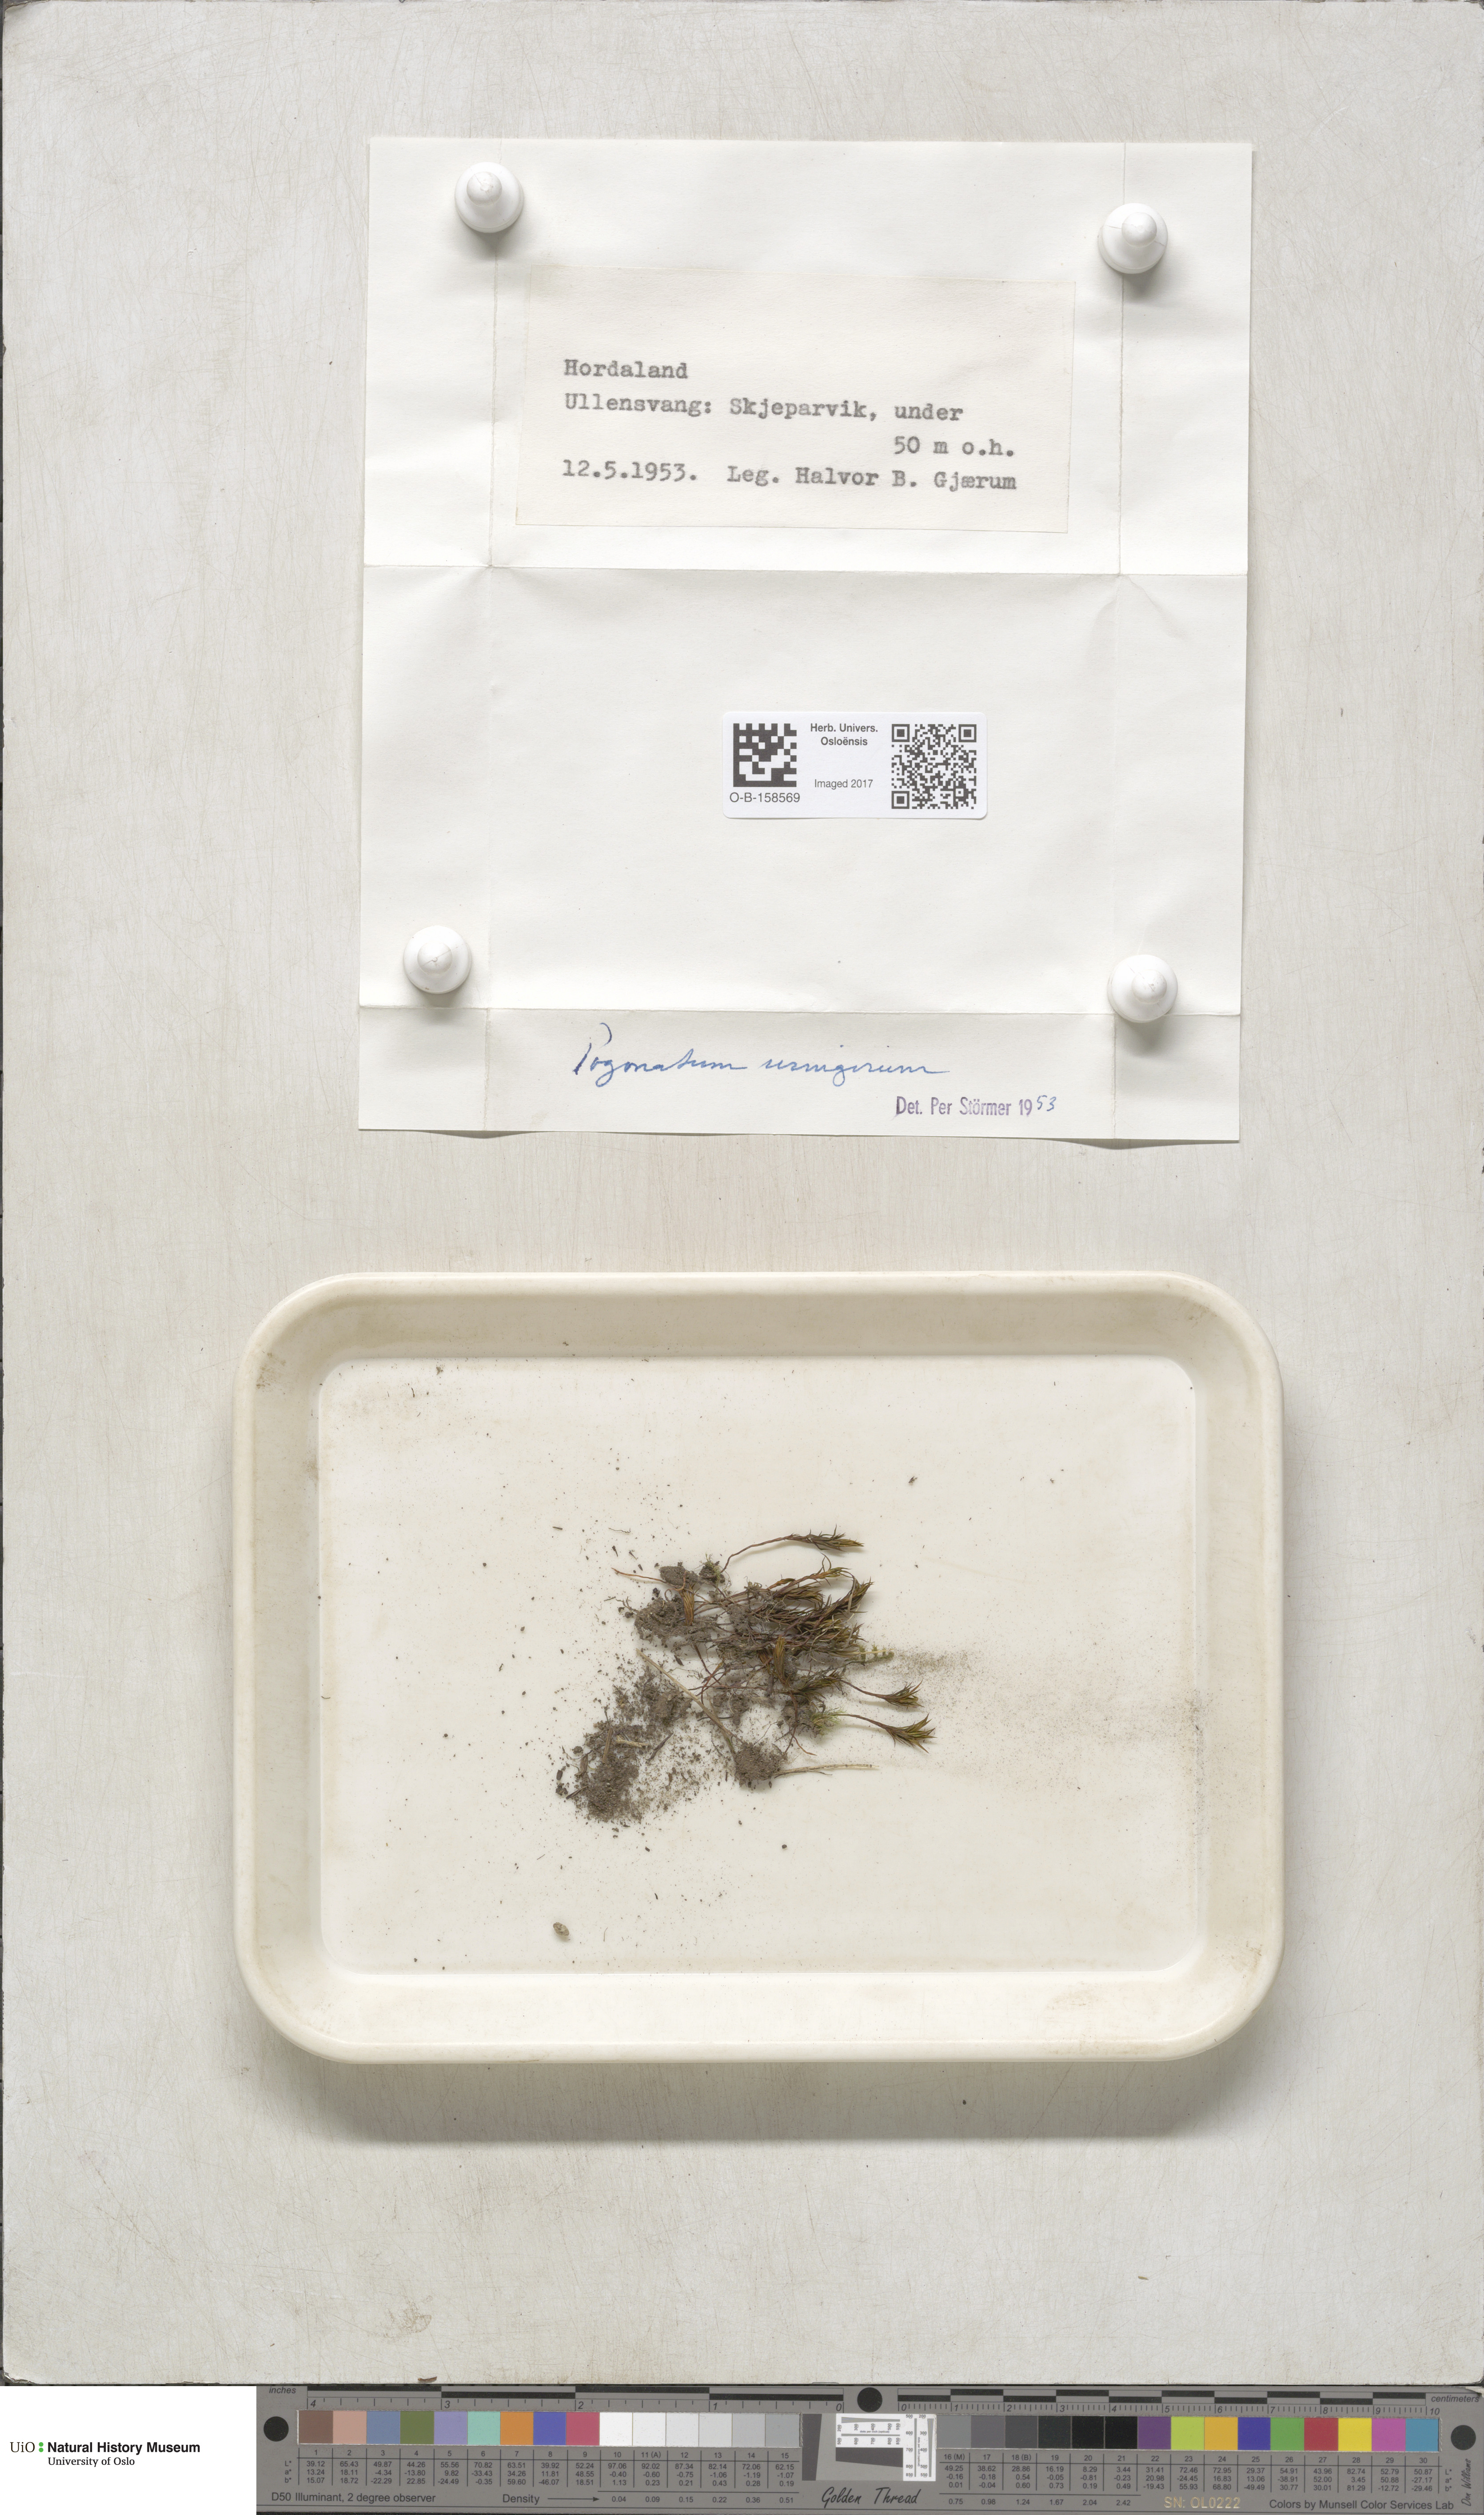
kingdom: Plantae
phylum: Bryophyta
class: Polytrichopsida
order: Polytrichales
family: Polytrichaceae
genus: Pogonatum
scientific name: Pogonatum urnigerum
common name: Urn hair moss
